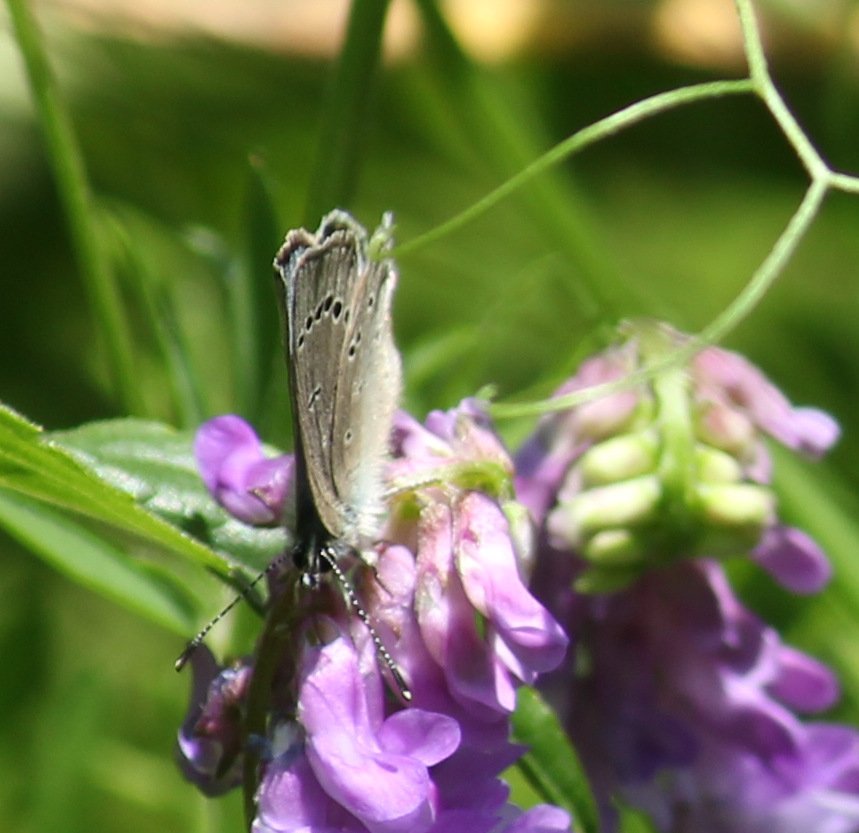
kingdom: Animalia
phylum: Arthropoda
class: Insecta
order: Lepidoptera
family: Lycaenidae
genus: Glaucopsyche
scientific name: Glaucopsyche lygdamus
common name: Silvery Blue
